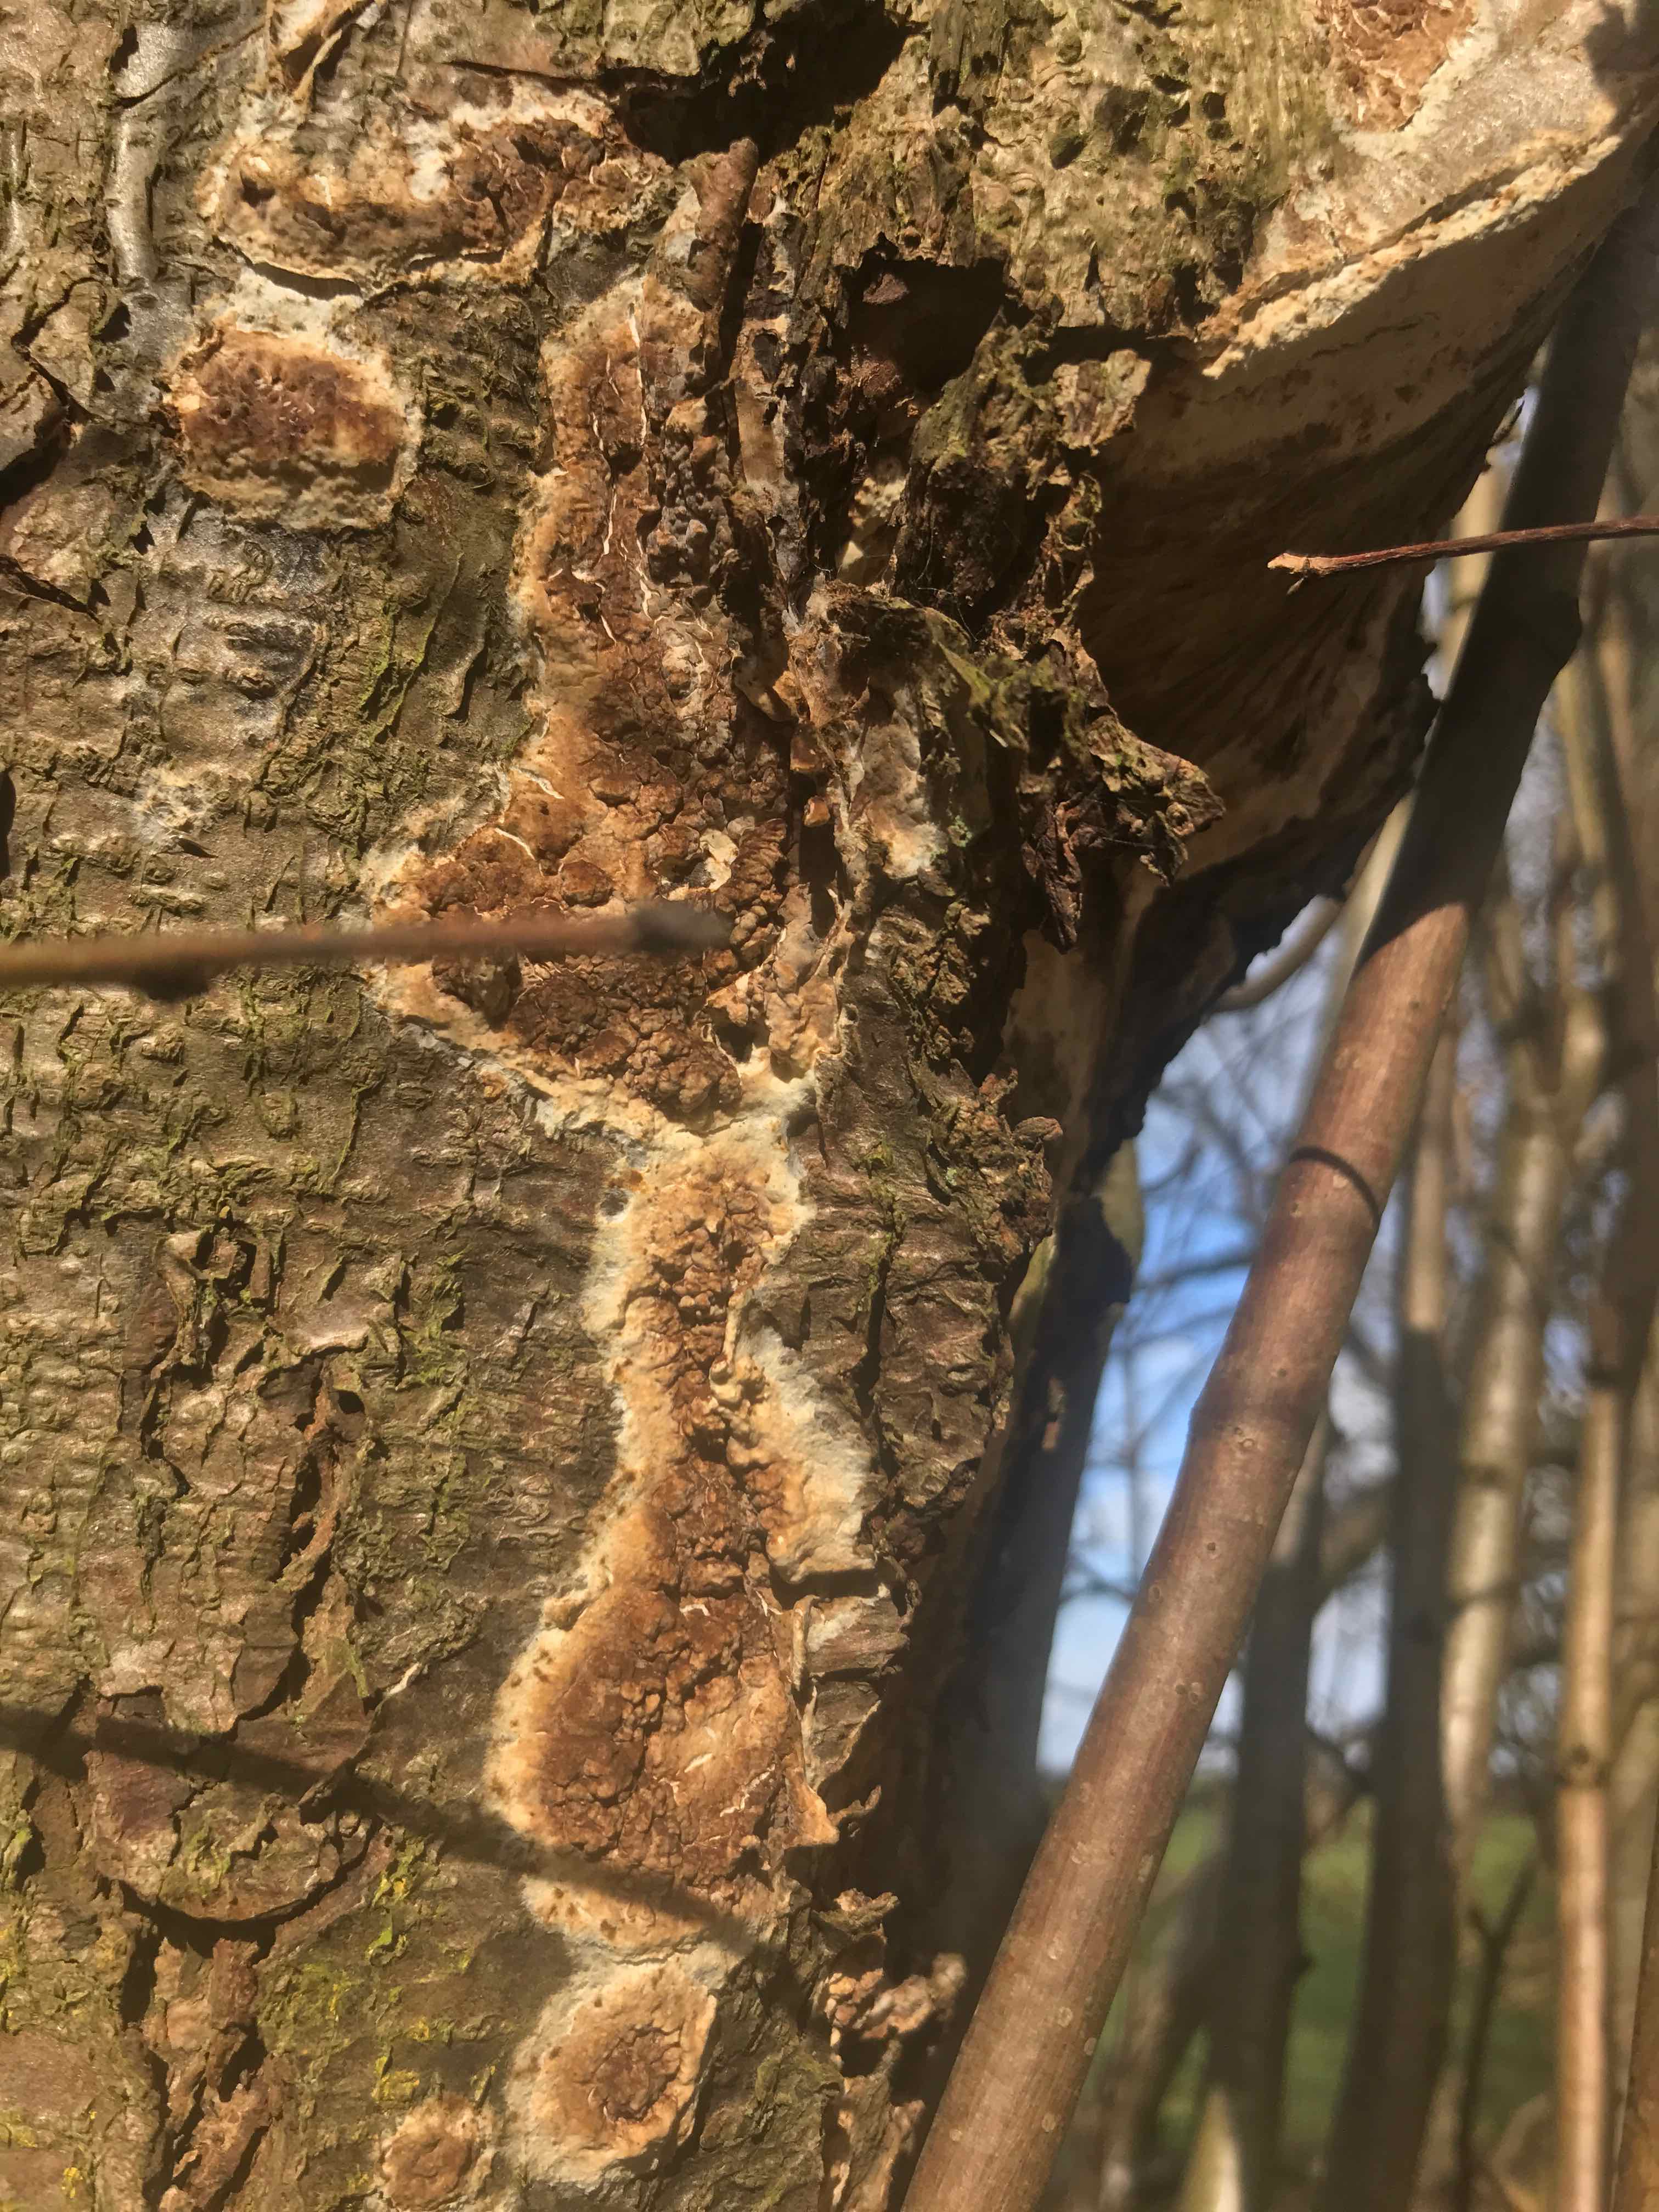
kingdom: Fungi
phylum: Basidiomycota
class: Agaricomycetes
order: Boletales
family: Coniophoraceae
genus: Coniophora
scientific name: Coniophora puteana
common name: gul tømmersvamp
